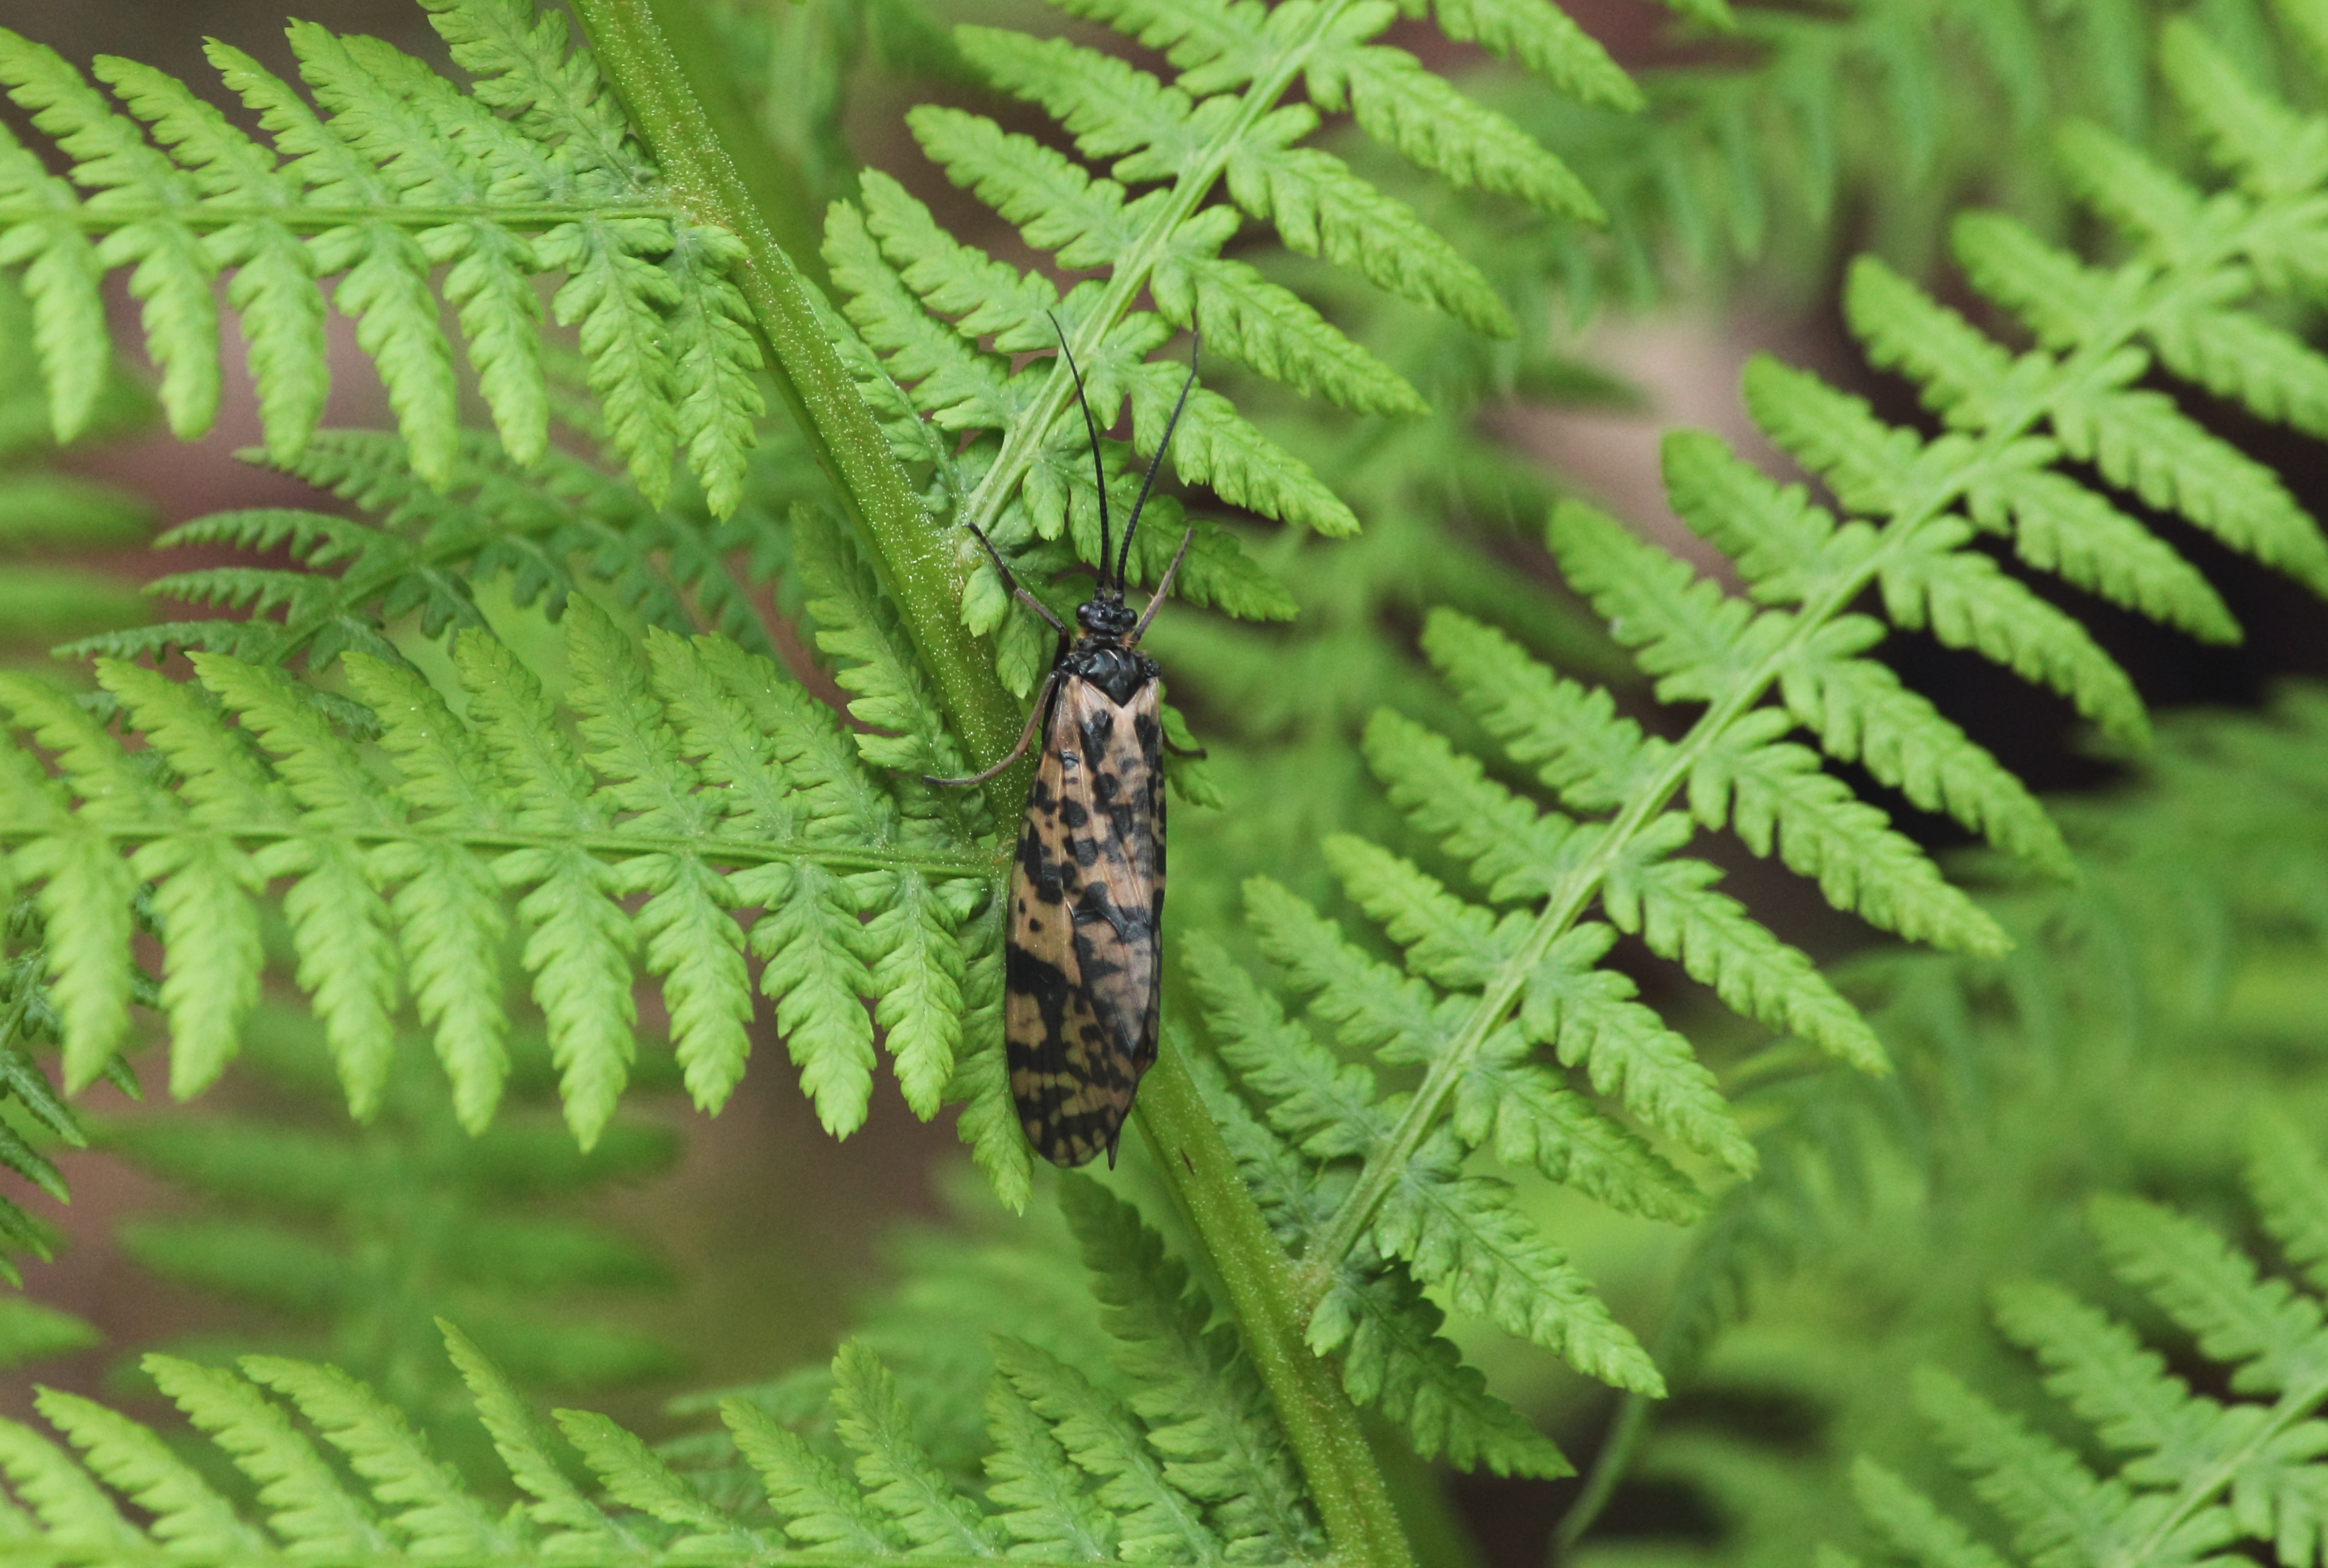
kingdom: Animalia
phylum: Arthropoda
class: Insecta
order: Trichoptera
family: Phryganeidae
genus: Semblis
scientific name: Semblis atrata
